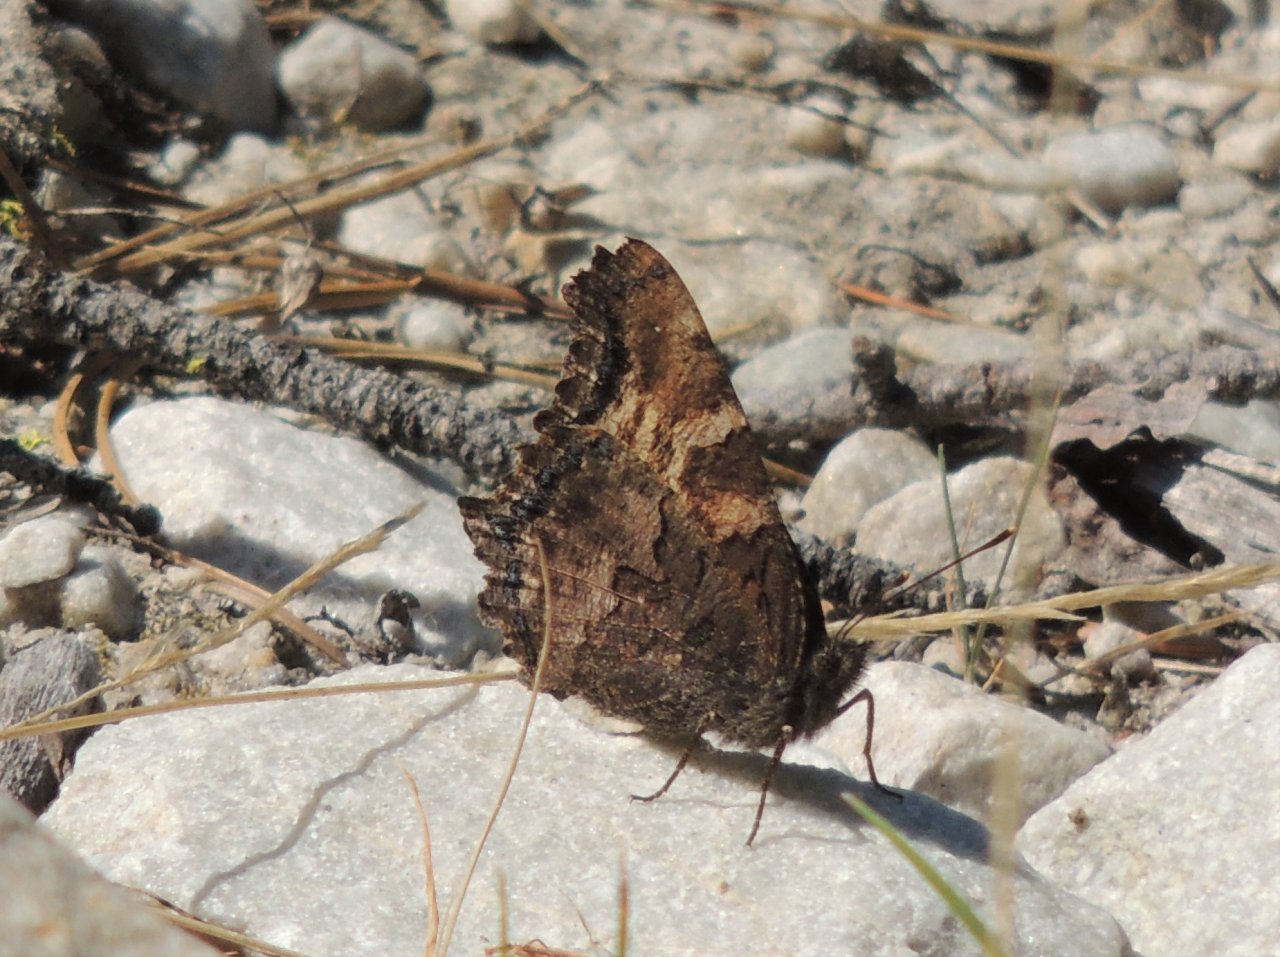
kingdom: Animalia
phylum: Arthropoda
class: Insecta
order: Lepidoptera
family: Nymphalidae
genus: Nymphalis
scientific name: Nymphalis californica
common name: California Tortoiseshell
